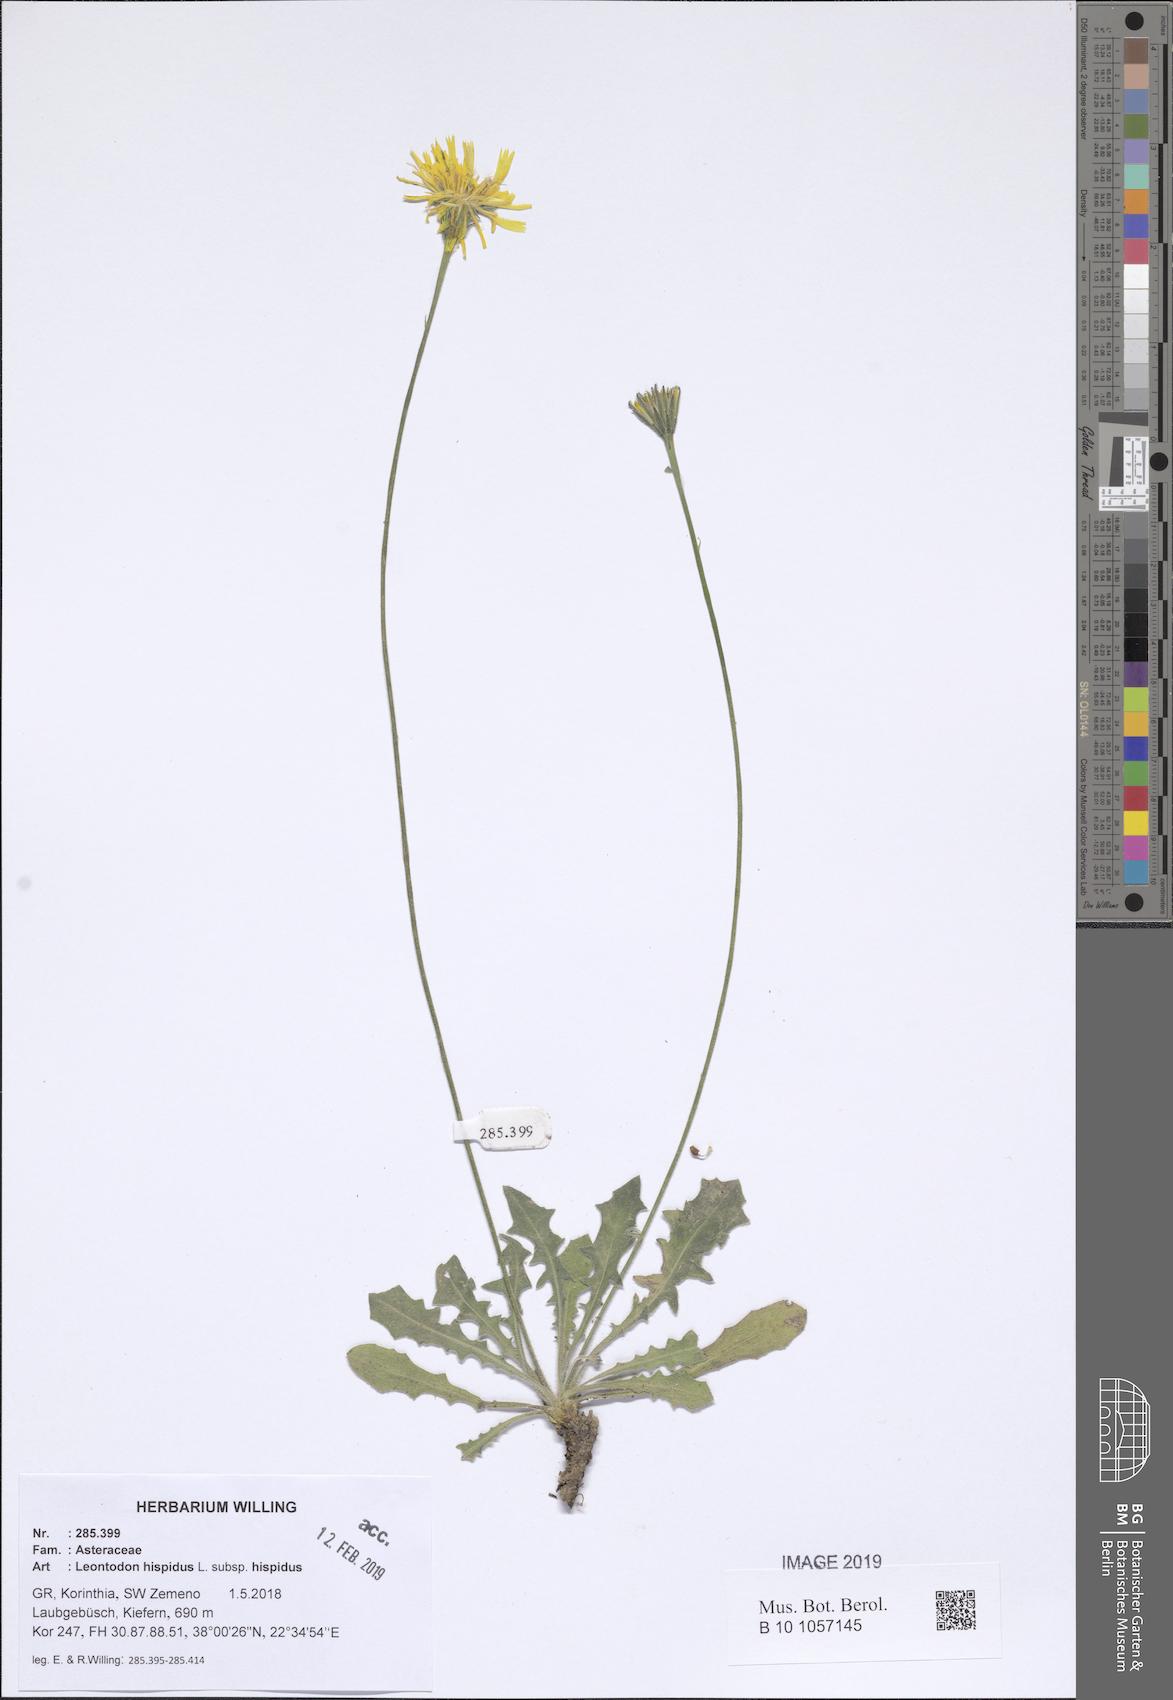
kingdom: Plantae
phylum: Tracheophyta
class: Magnoliopsida
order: Asterales
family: Asteraceae
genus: Leontodon
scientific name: Leontodon hispidus
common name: Rough hawkbit
